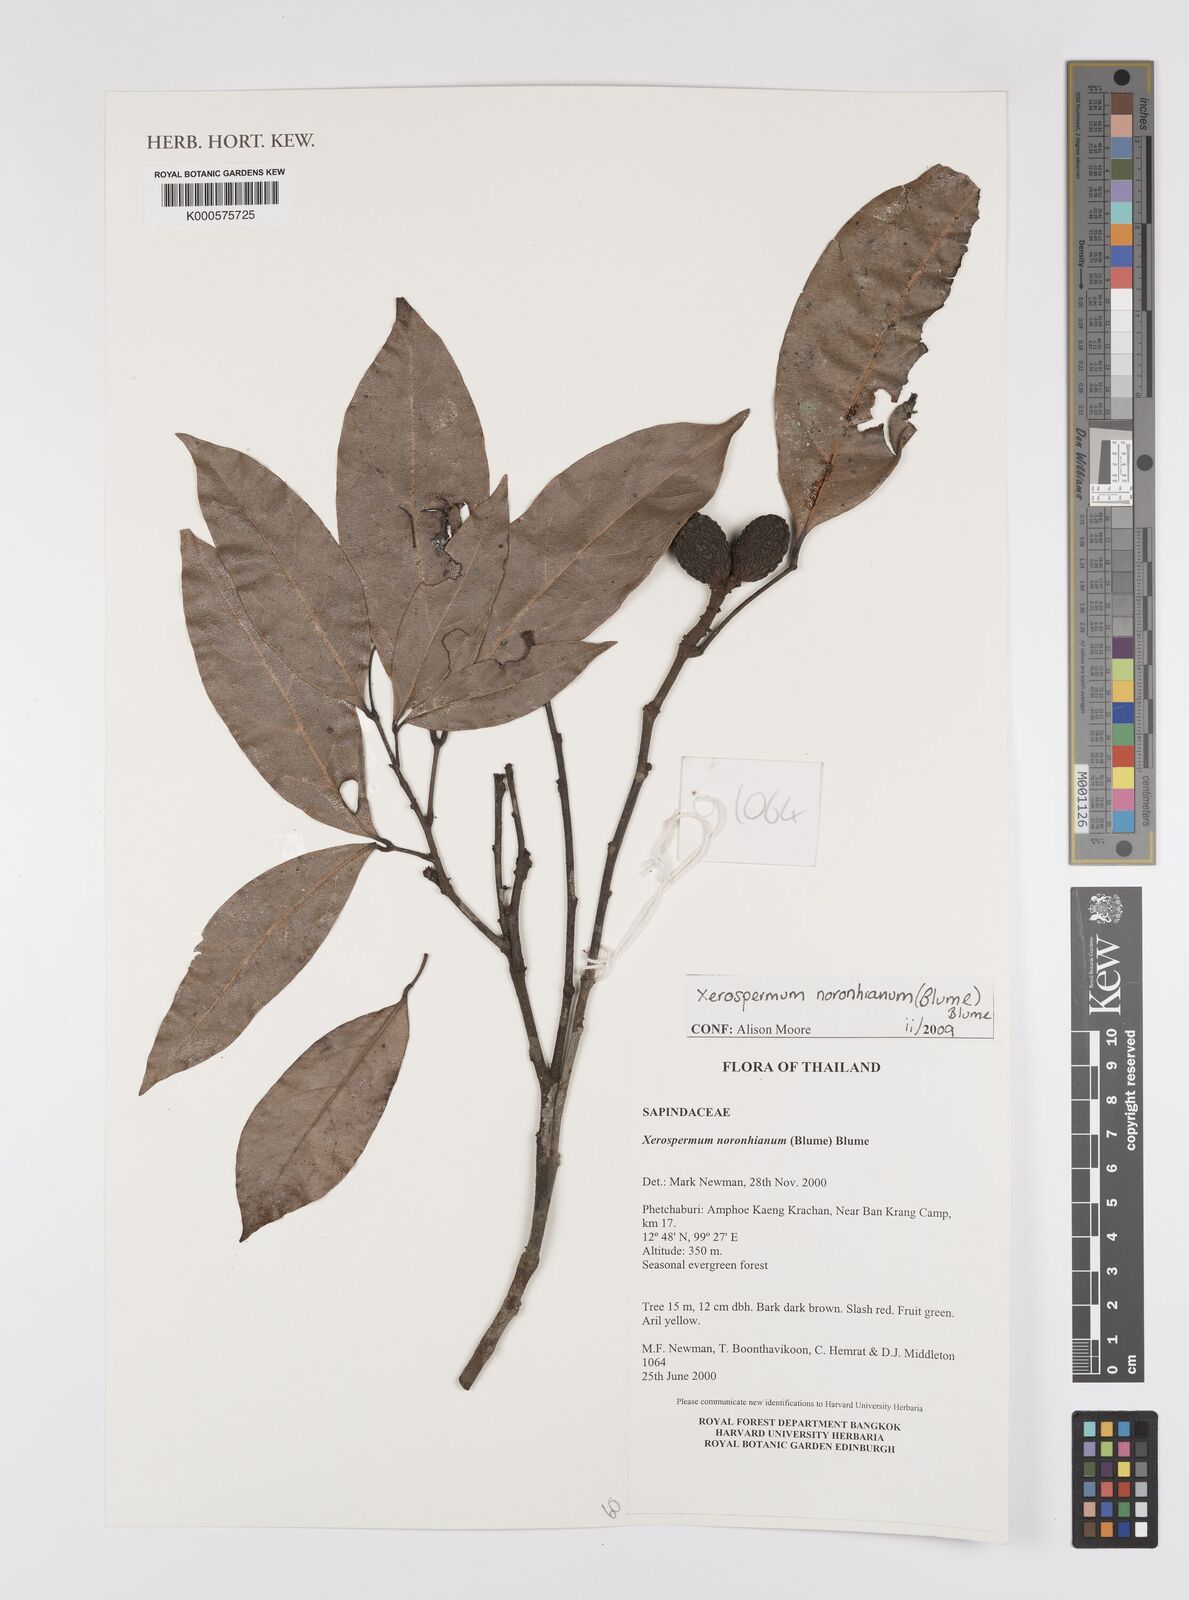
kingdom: Plantae
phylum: Tracheophyta
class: Magnoliopsida
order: Sapindales
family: Sapindaceae
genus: Xerospermum
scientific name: Xerospermum
